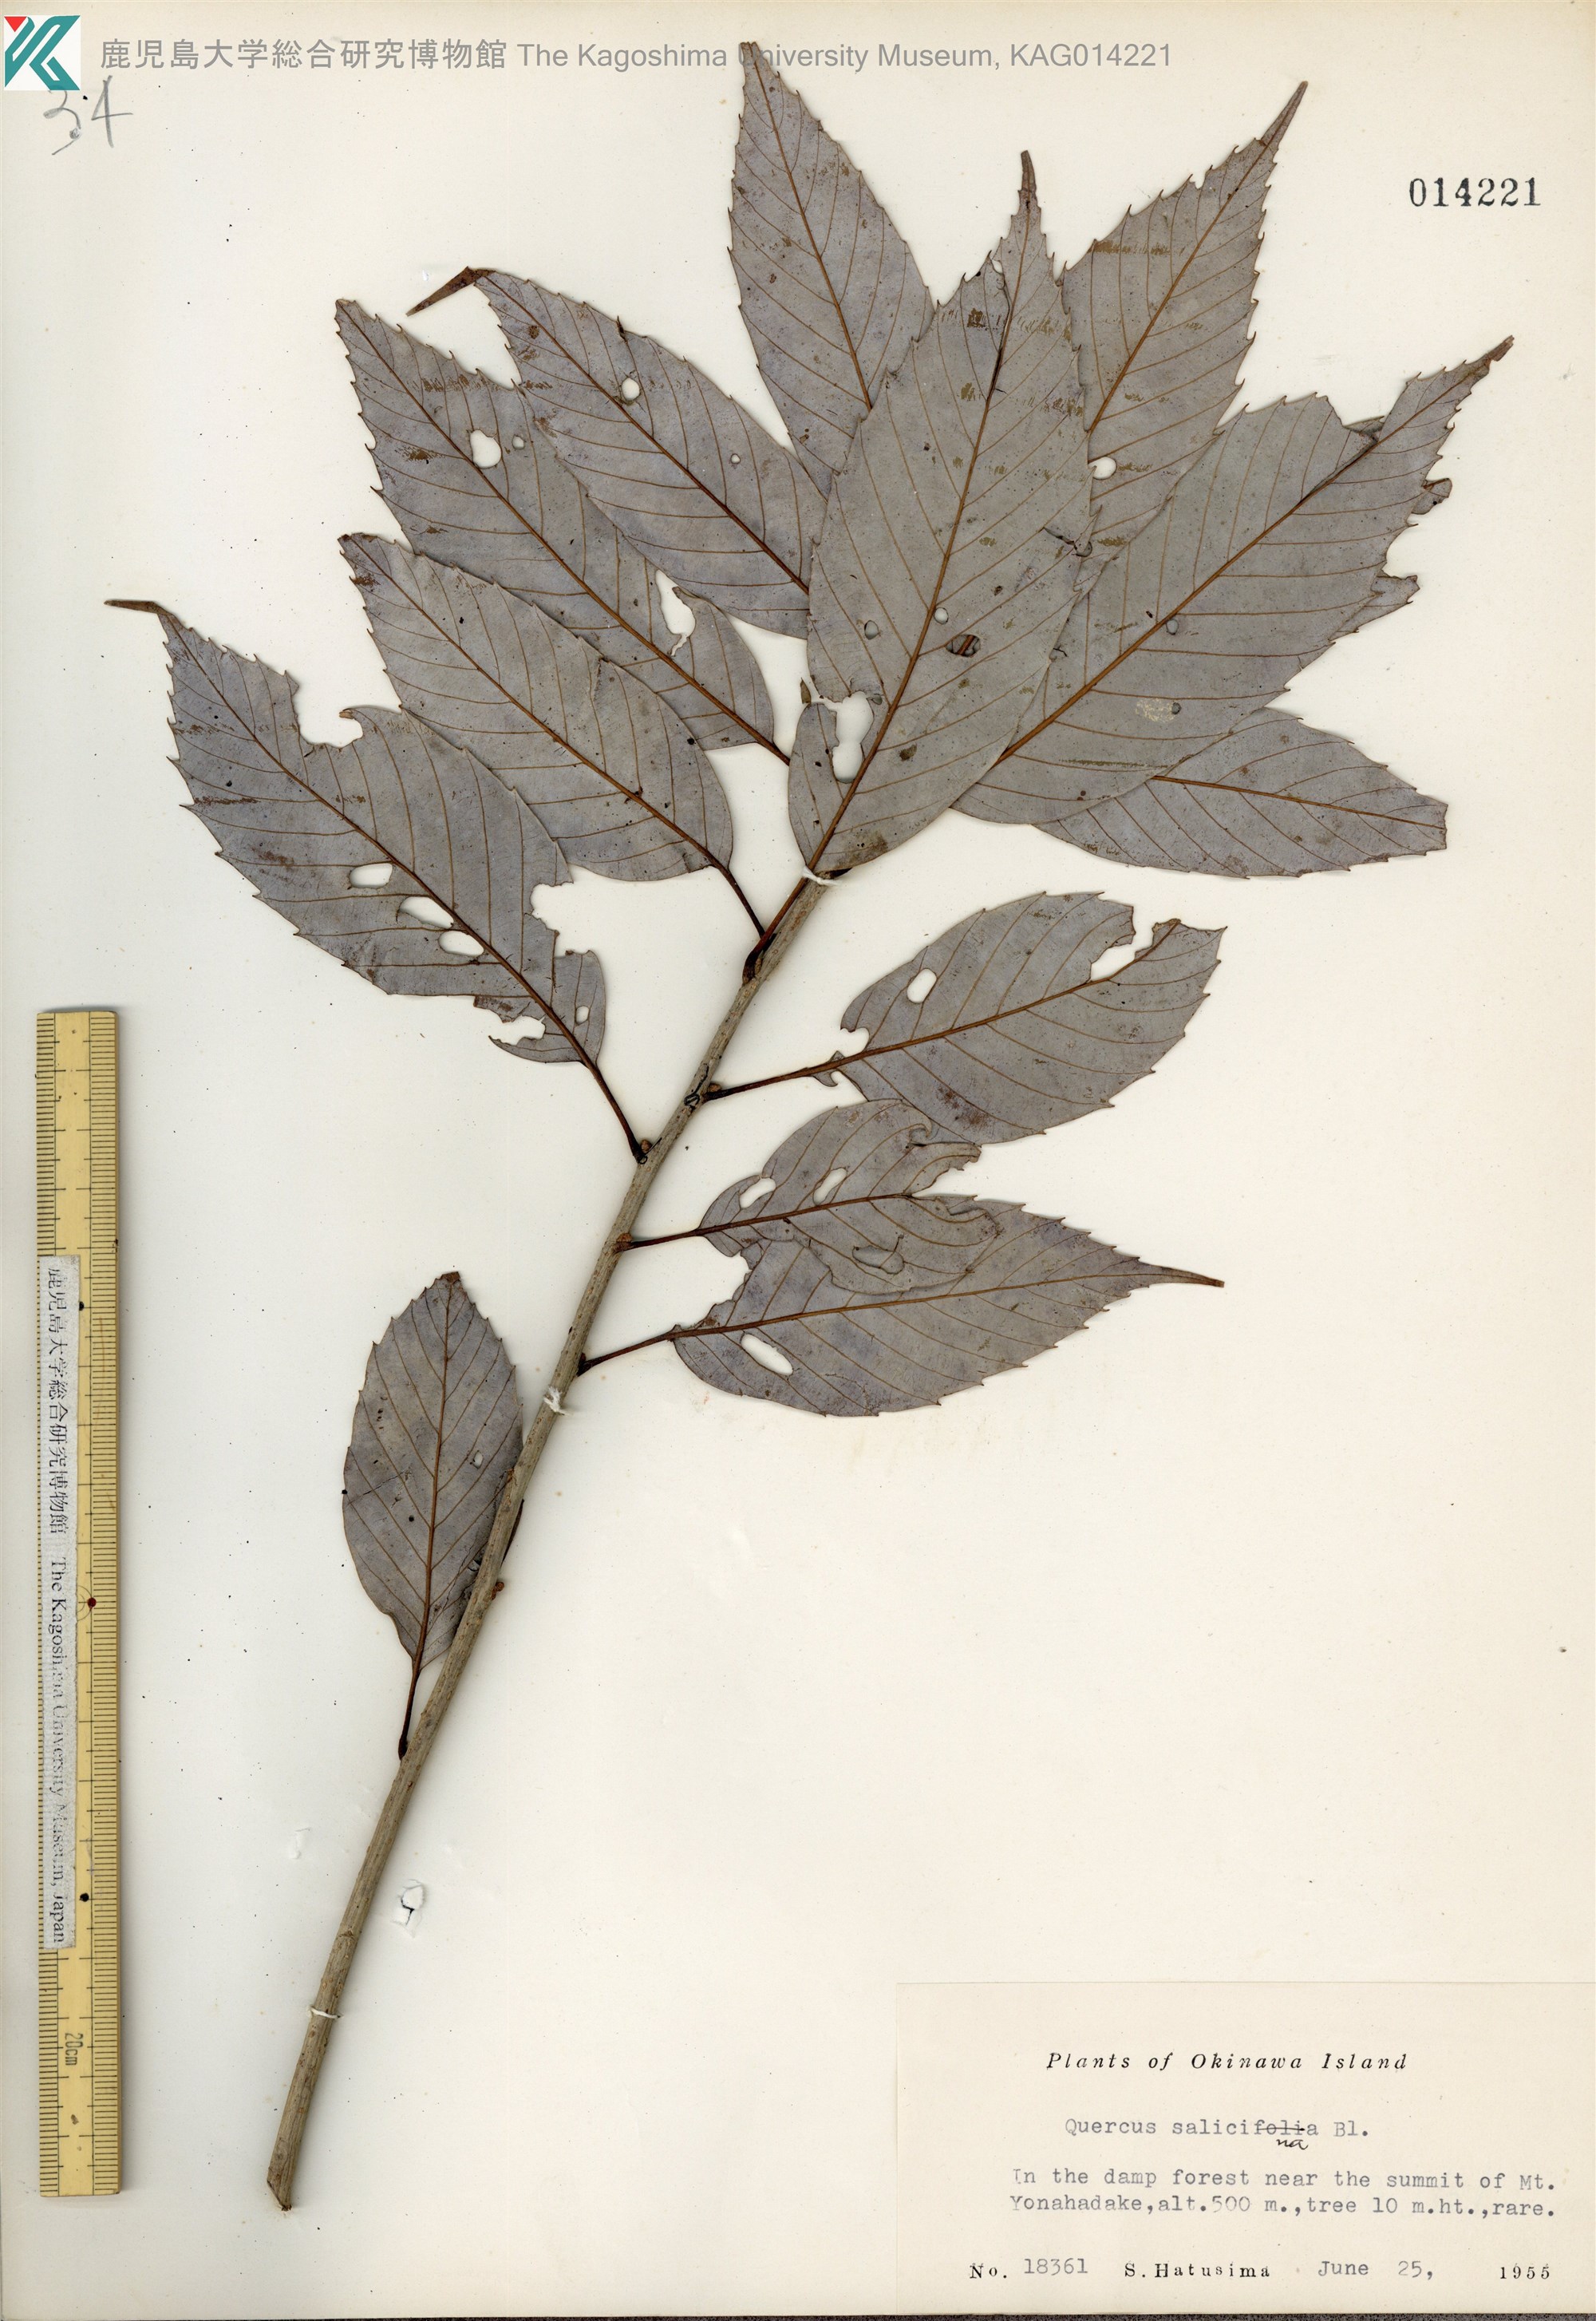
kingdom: Plantae
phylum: Tracheophyta
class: Magnoliopsida
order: Fagales
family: Fagaceae
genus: Quercus
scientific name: Quercus salicina
